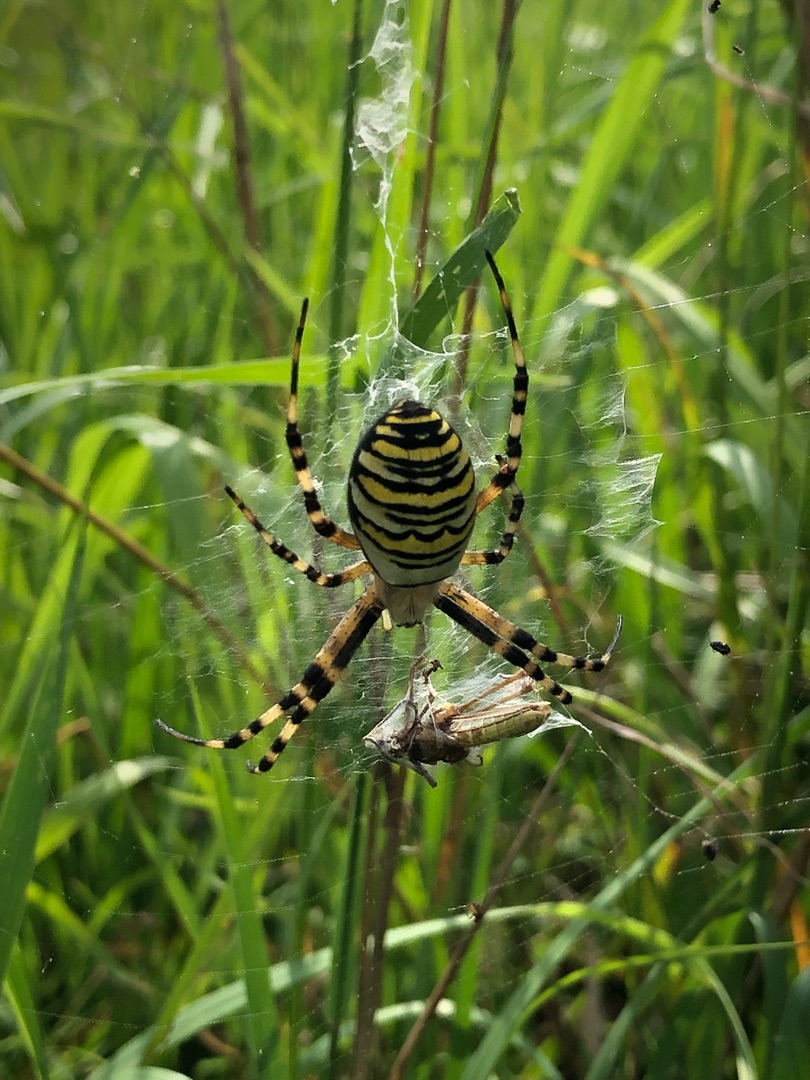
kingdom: Animalia
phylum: Arthropoda
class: Arachnida
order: Araneae
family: Araneidae
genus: Argiope
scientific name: Argiope bruennichi
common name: Hvepseedderkop
